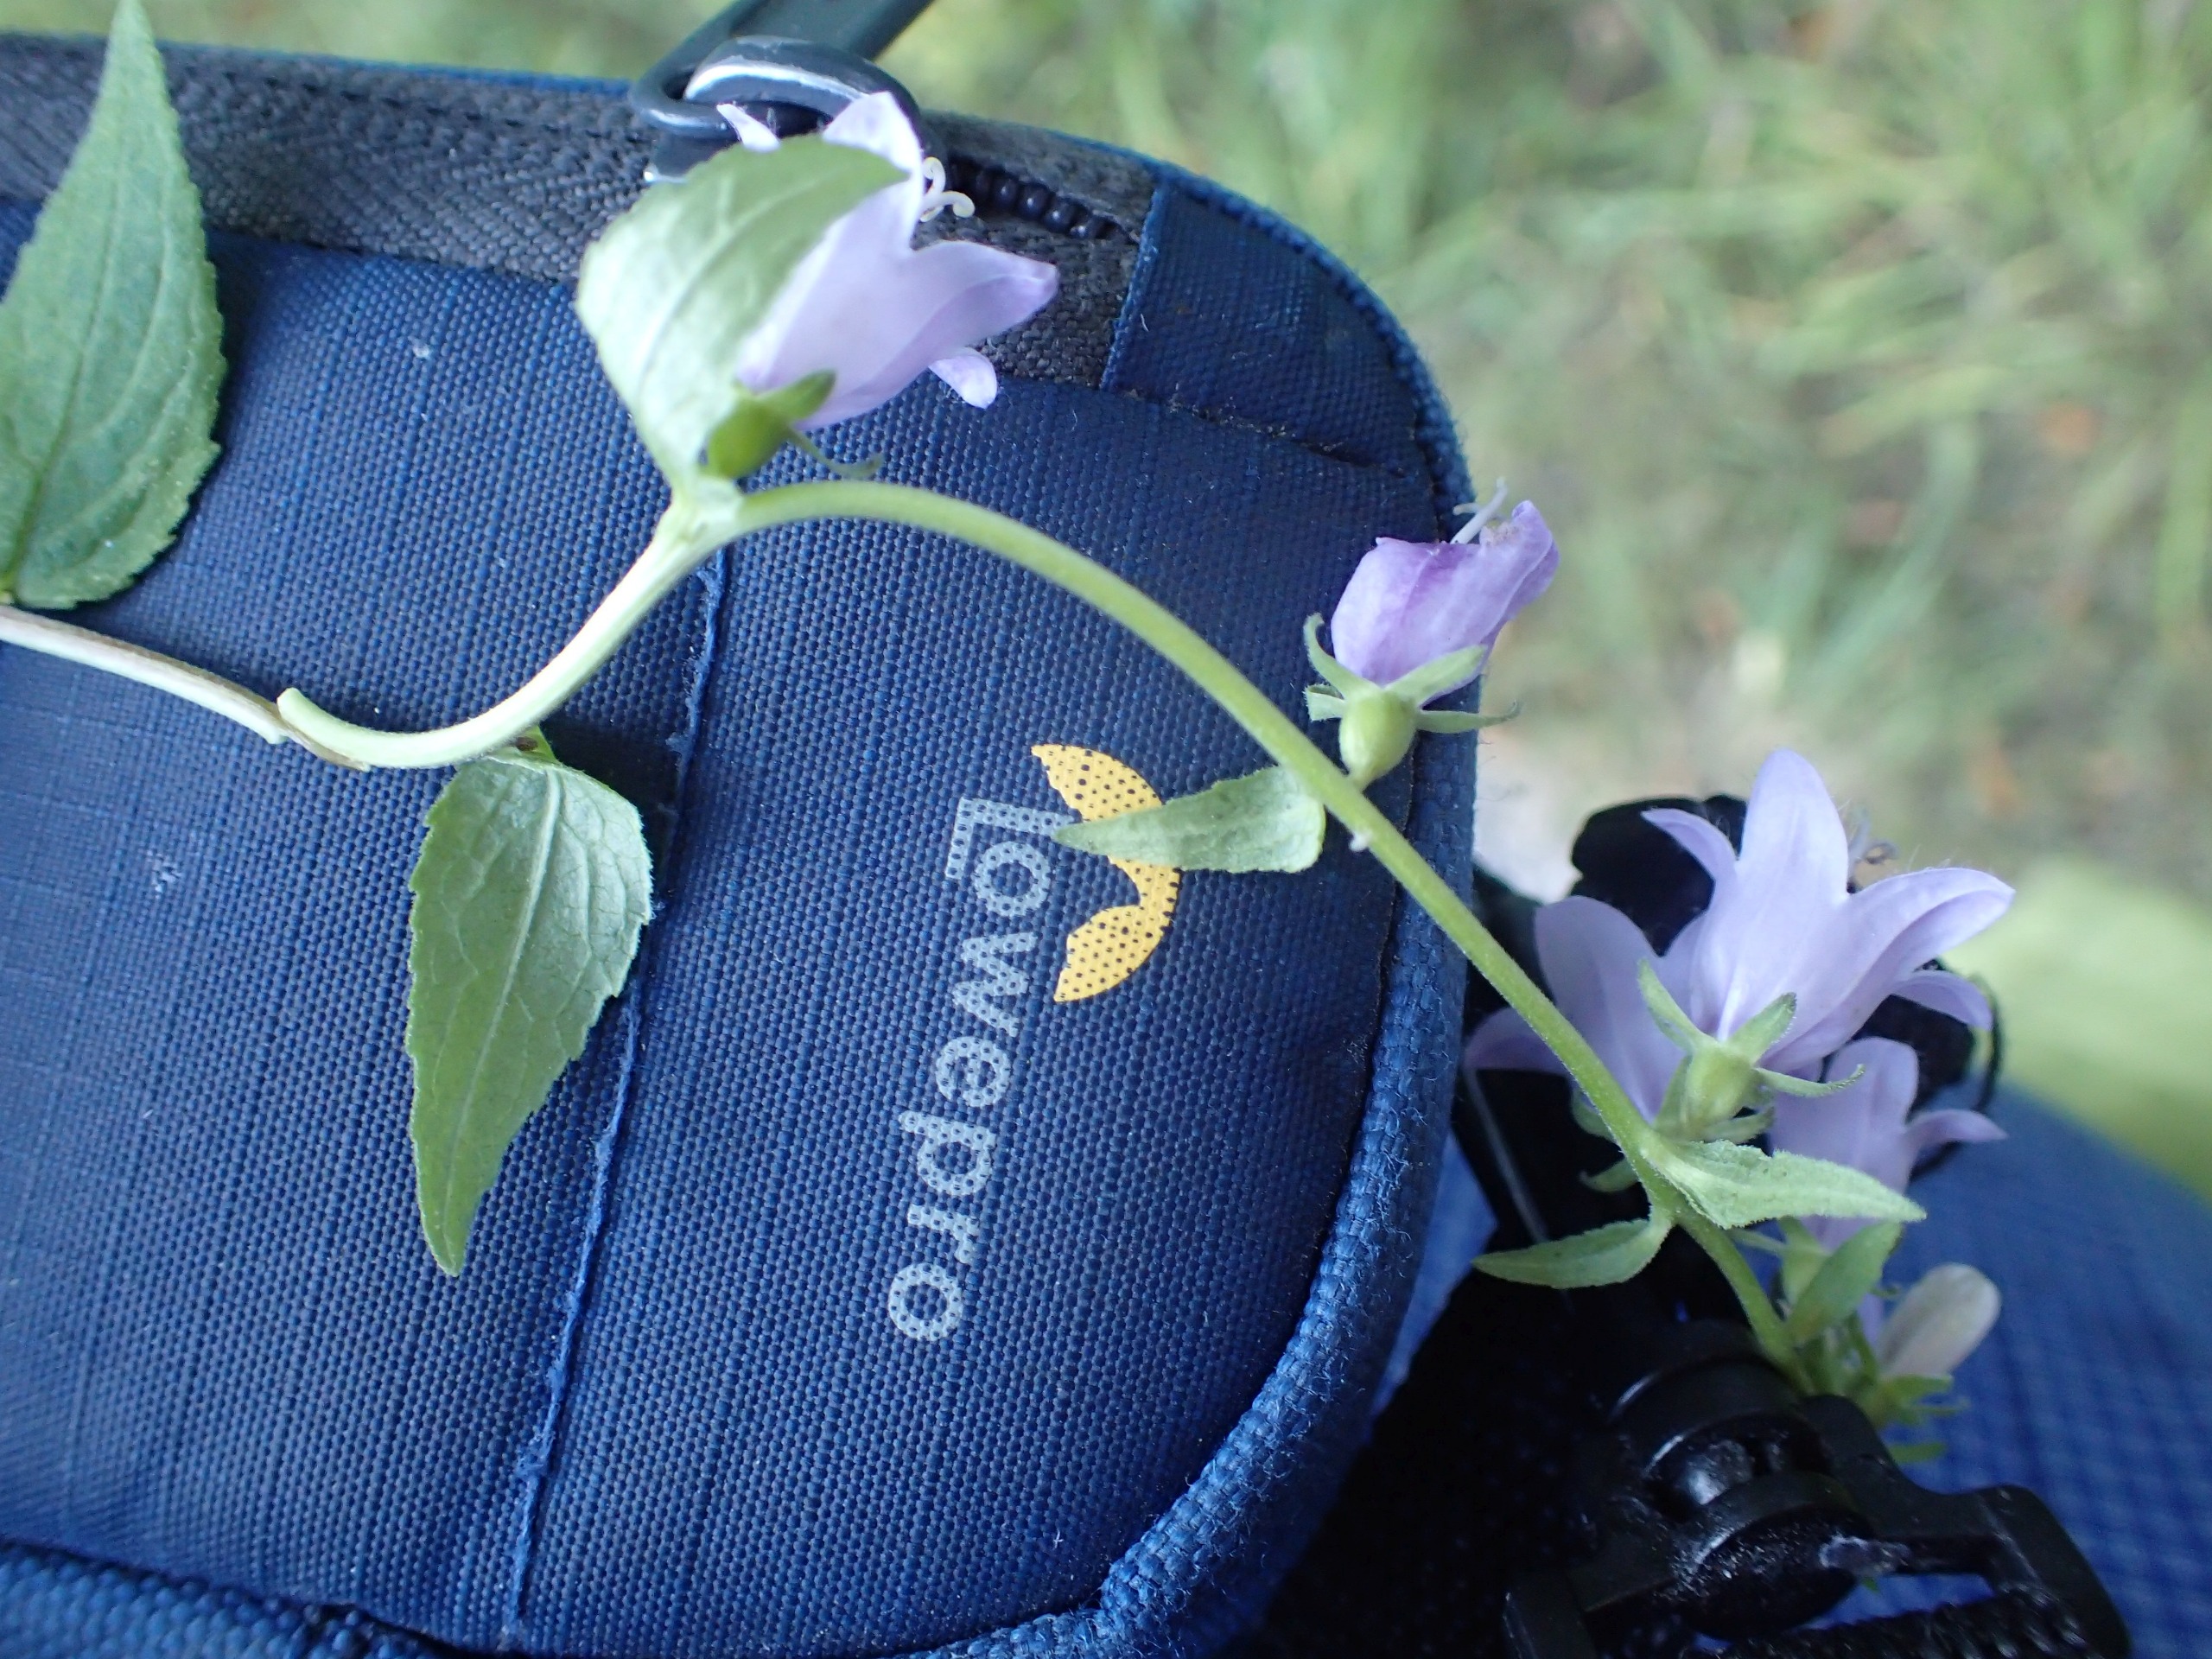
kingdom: Plantae
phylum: Tracheophyta
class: Magnoliopsida
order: Asterales
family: Campanulaceae
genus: Campanula
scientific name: Campanula rapunculoides
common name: Ensidig klokke
